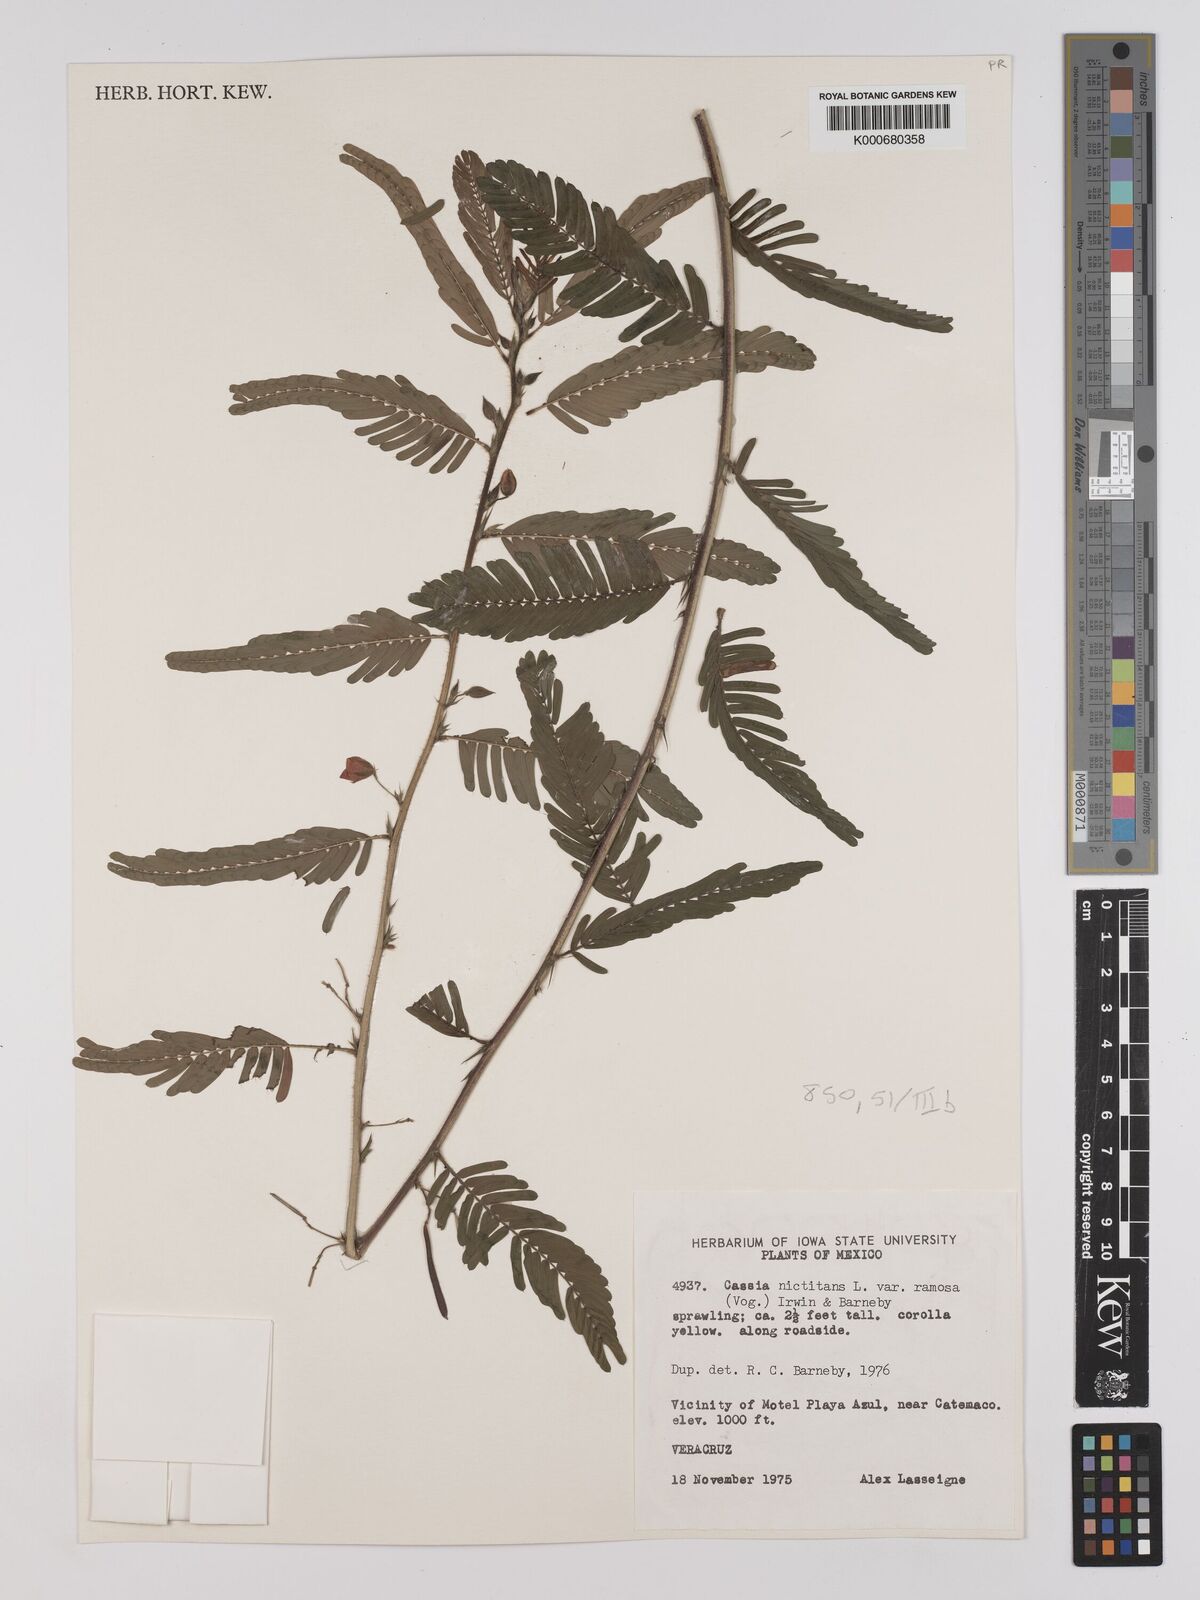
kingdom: Plantae
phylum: Tracheophyta
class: Magnoliopsida
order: Fabales
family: Fabaceae
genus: Chamaecrista
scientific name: Chamaecrista nictitans
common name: Sensitive cassia
